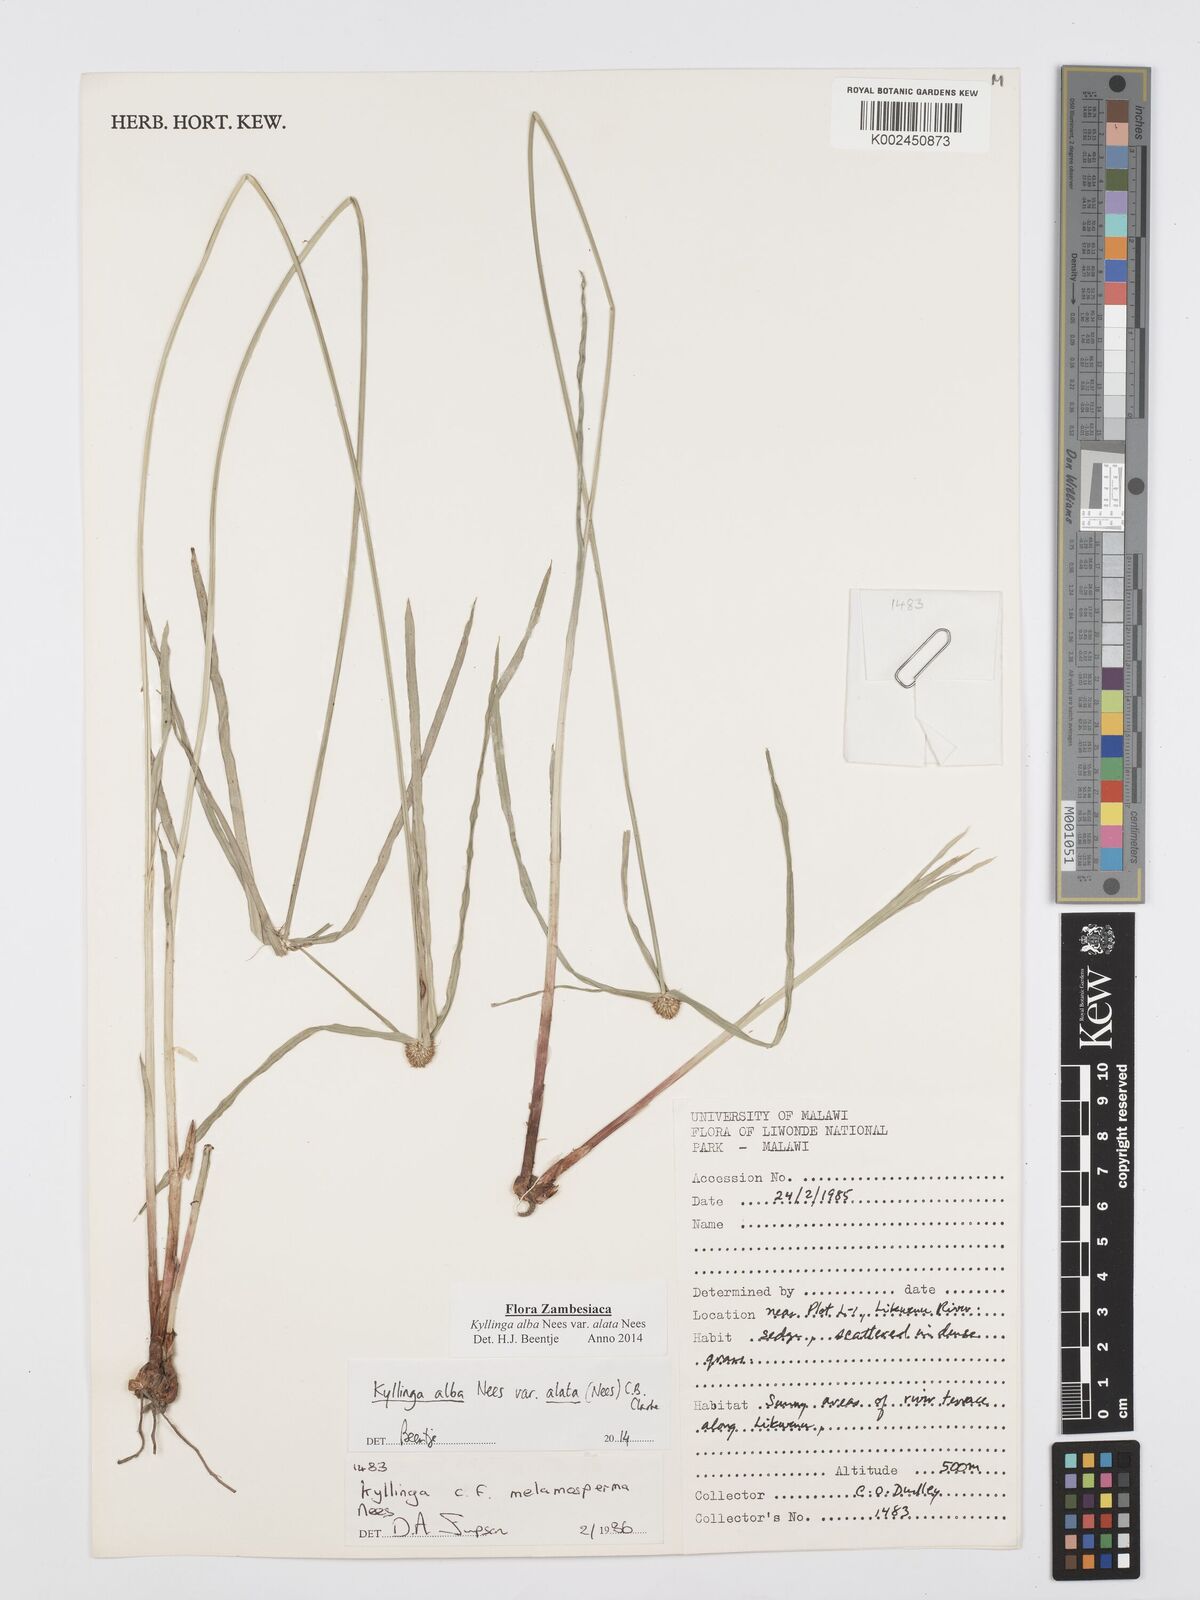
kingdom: Plantae
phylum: Tracheophyta
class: Liliopsida
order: Poales
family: Cyperaceae
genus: Cyperus
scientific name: Cyperus
